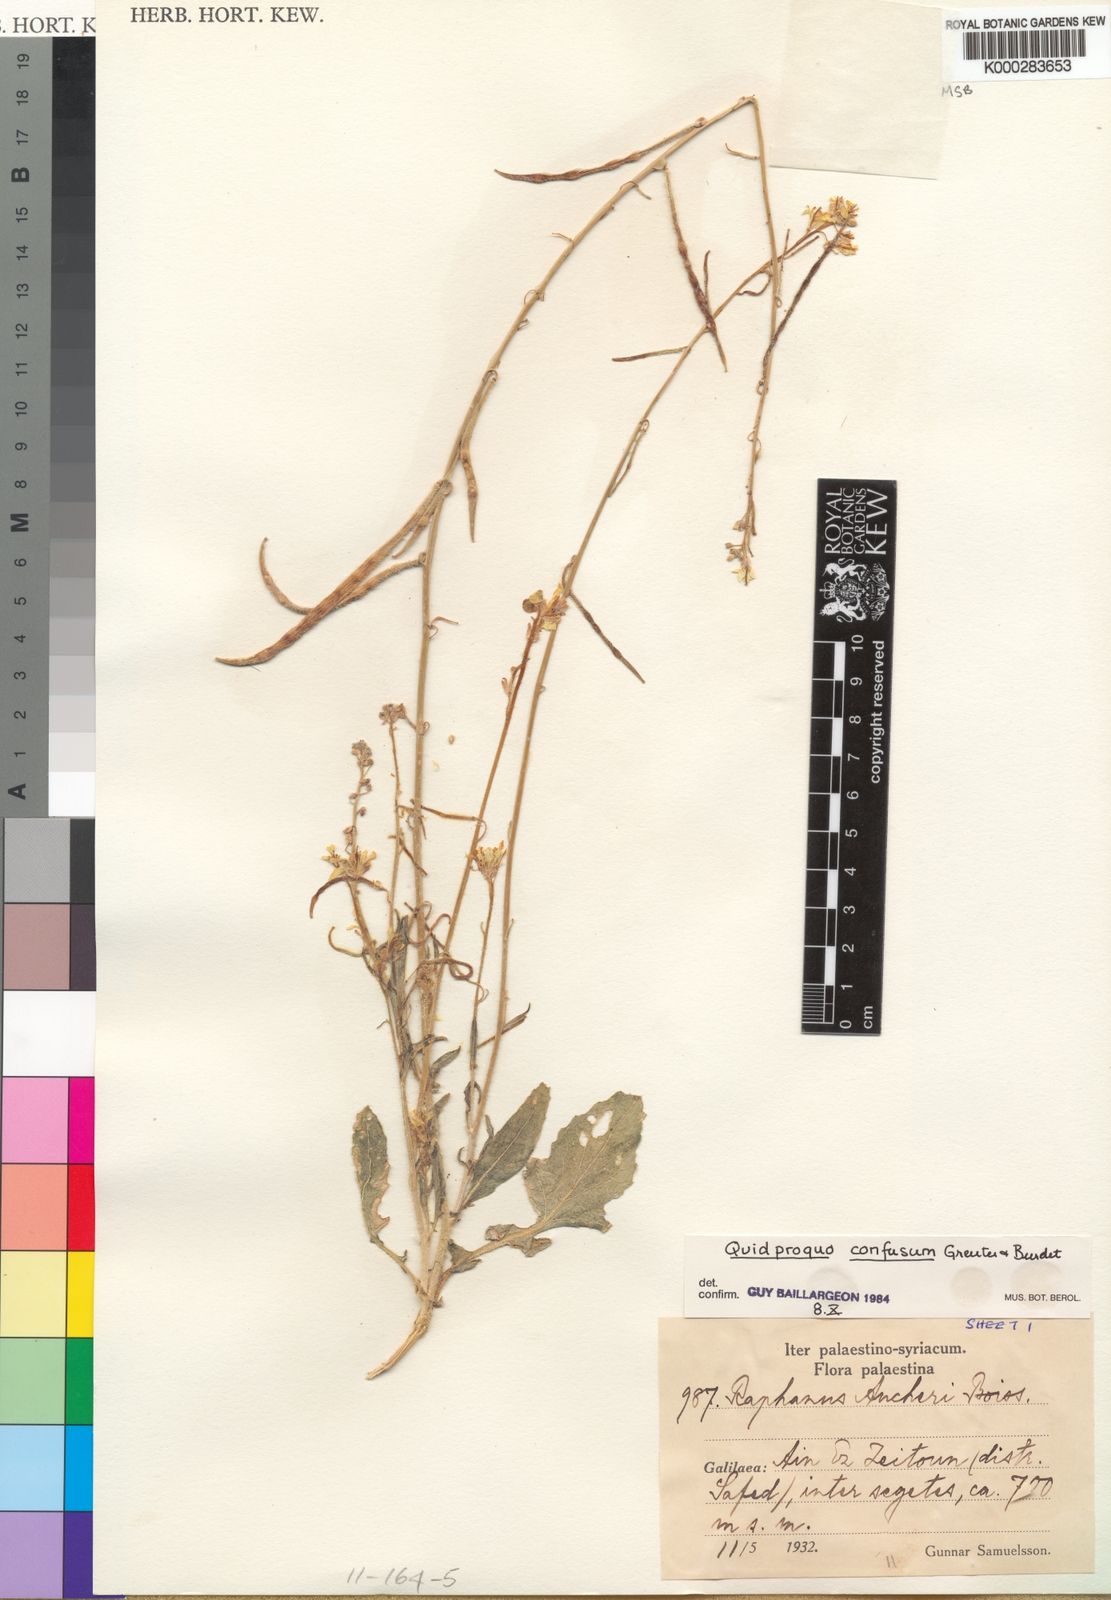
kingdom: Plantae
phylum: Tracheophyta
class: Magnoliopsida
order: Brassicales
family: Brassicaceae
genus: Raphanus
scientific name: Raphanus confusus
